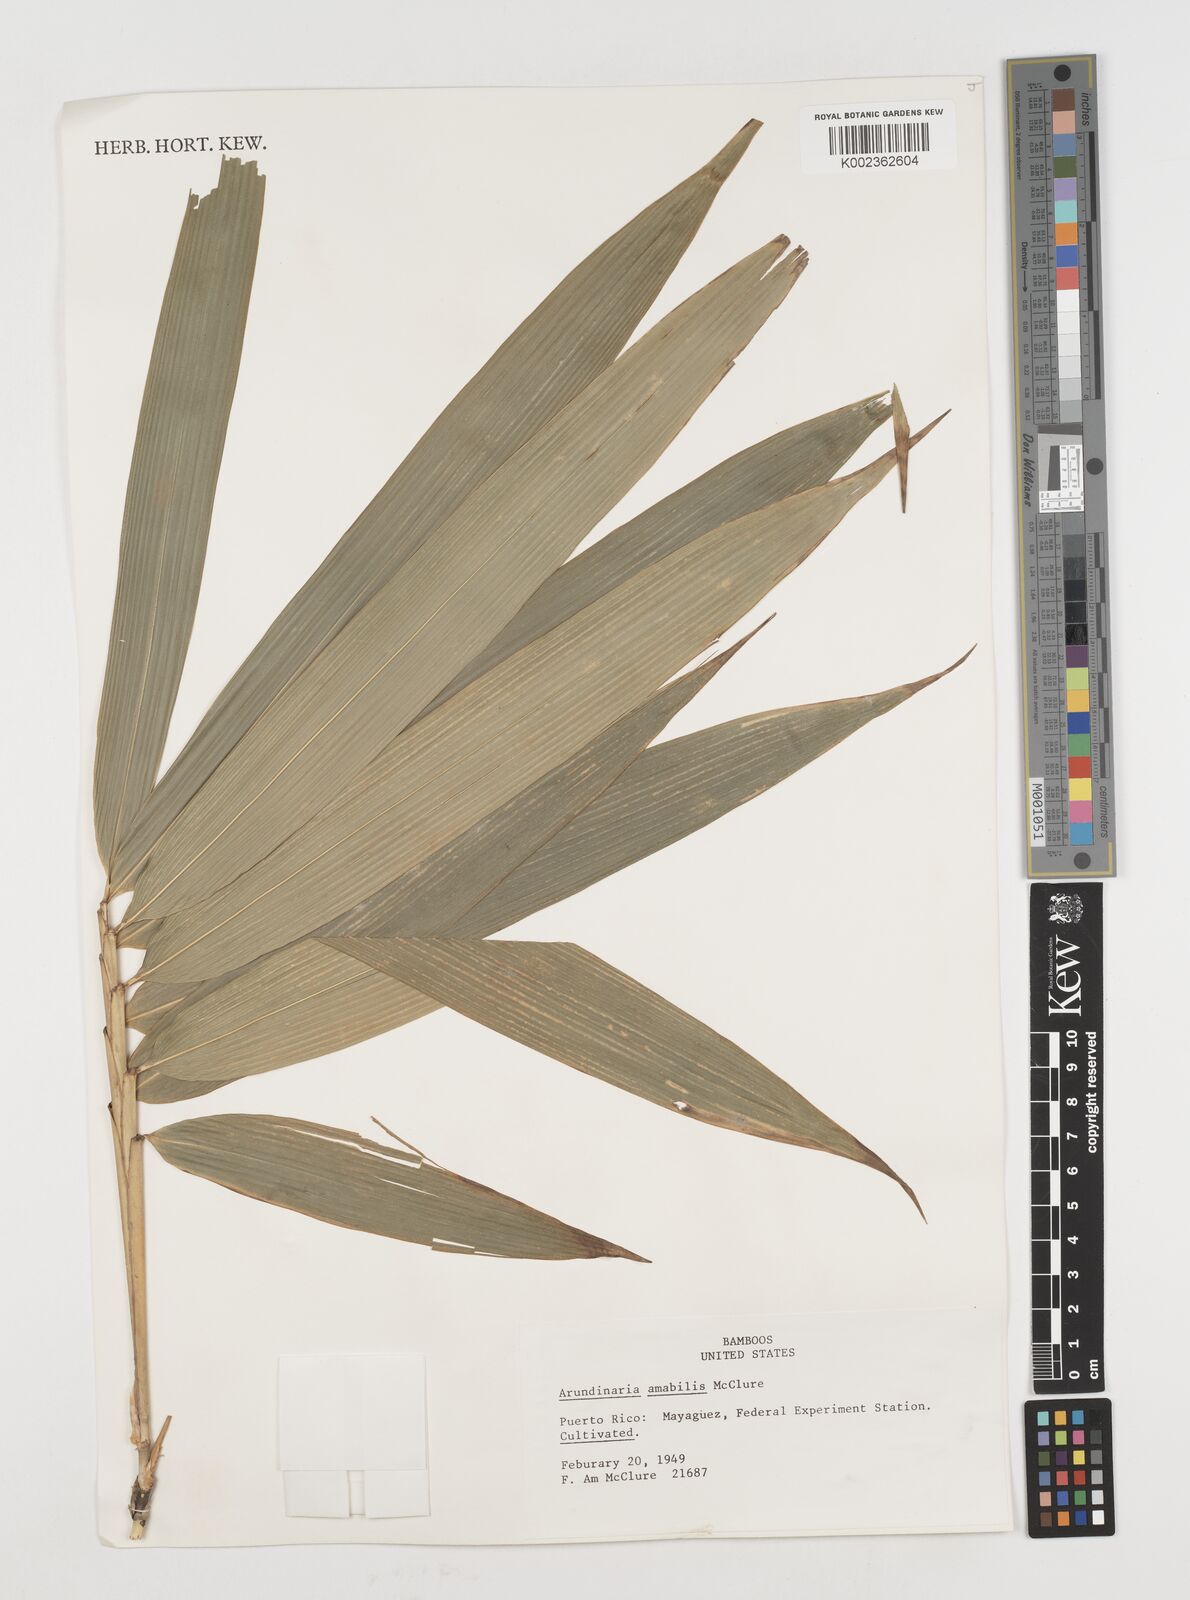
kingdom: Plantae
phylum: Tracheophyta
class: Liliopsida
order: Poales
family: Poaceae
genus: Pseudosasa
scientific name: Pseudosasa amabilis
